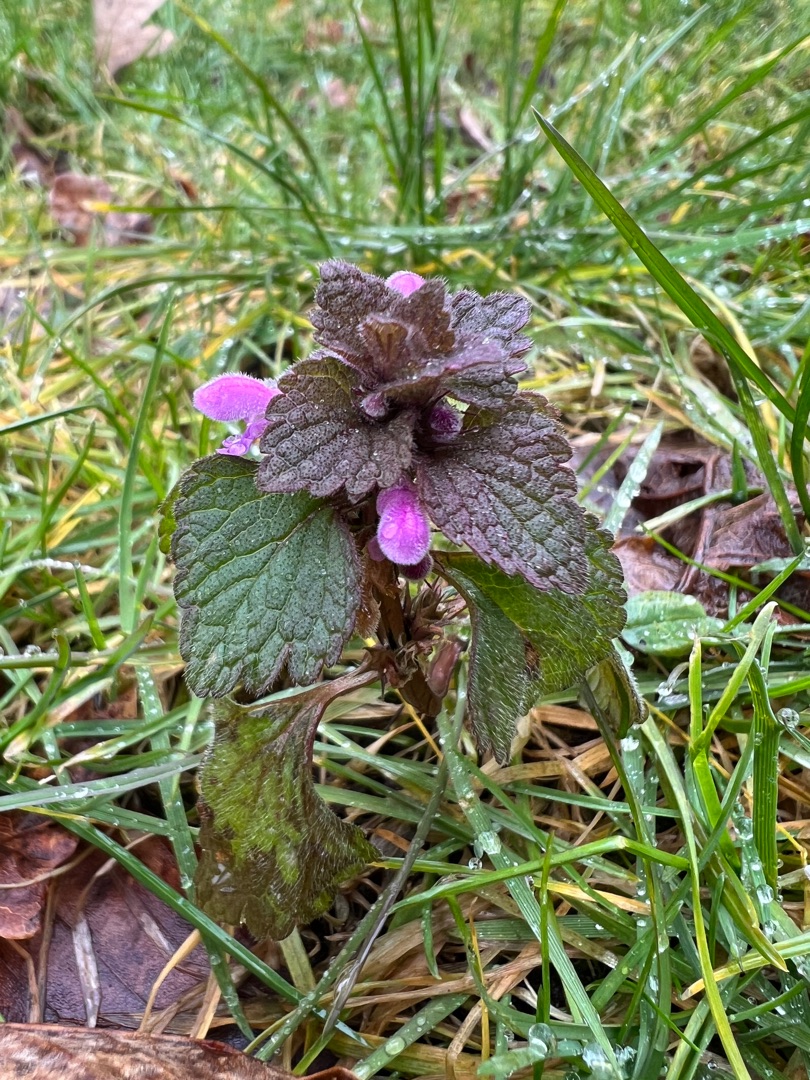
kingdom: Plantae
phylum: Tracheophyta
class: Magnoliopsida
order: Lamiales
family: Lamiaceae
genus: Lamium
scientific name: Lamium purpureum
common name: Rød tvetand
